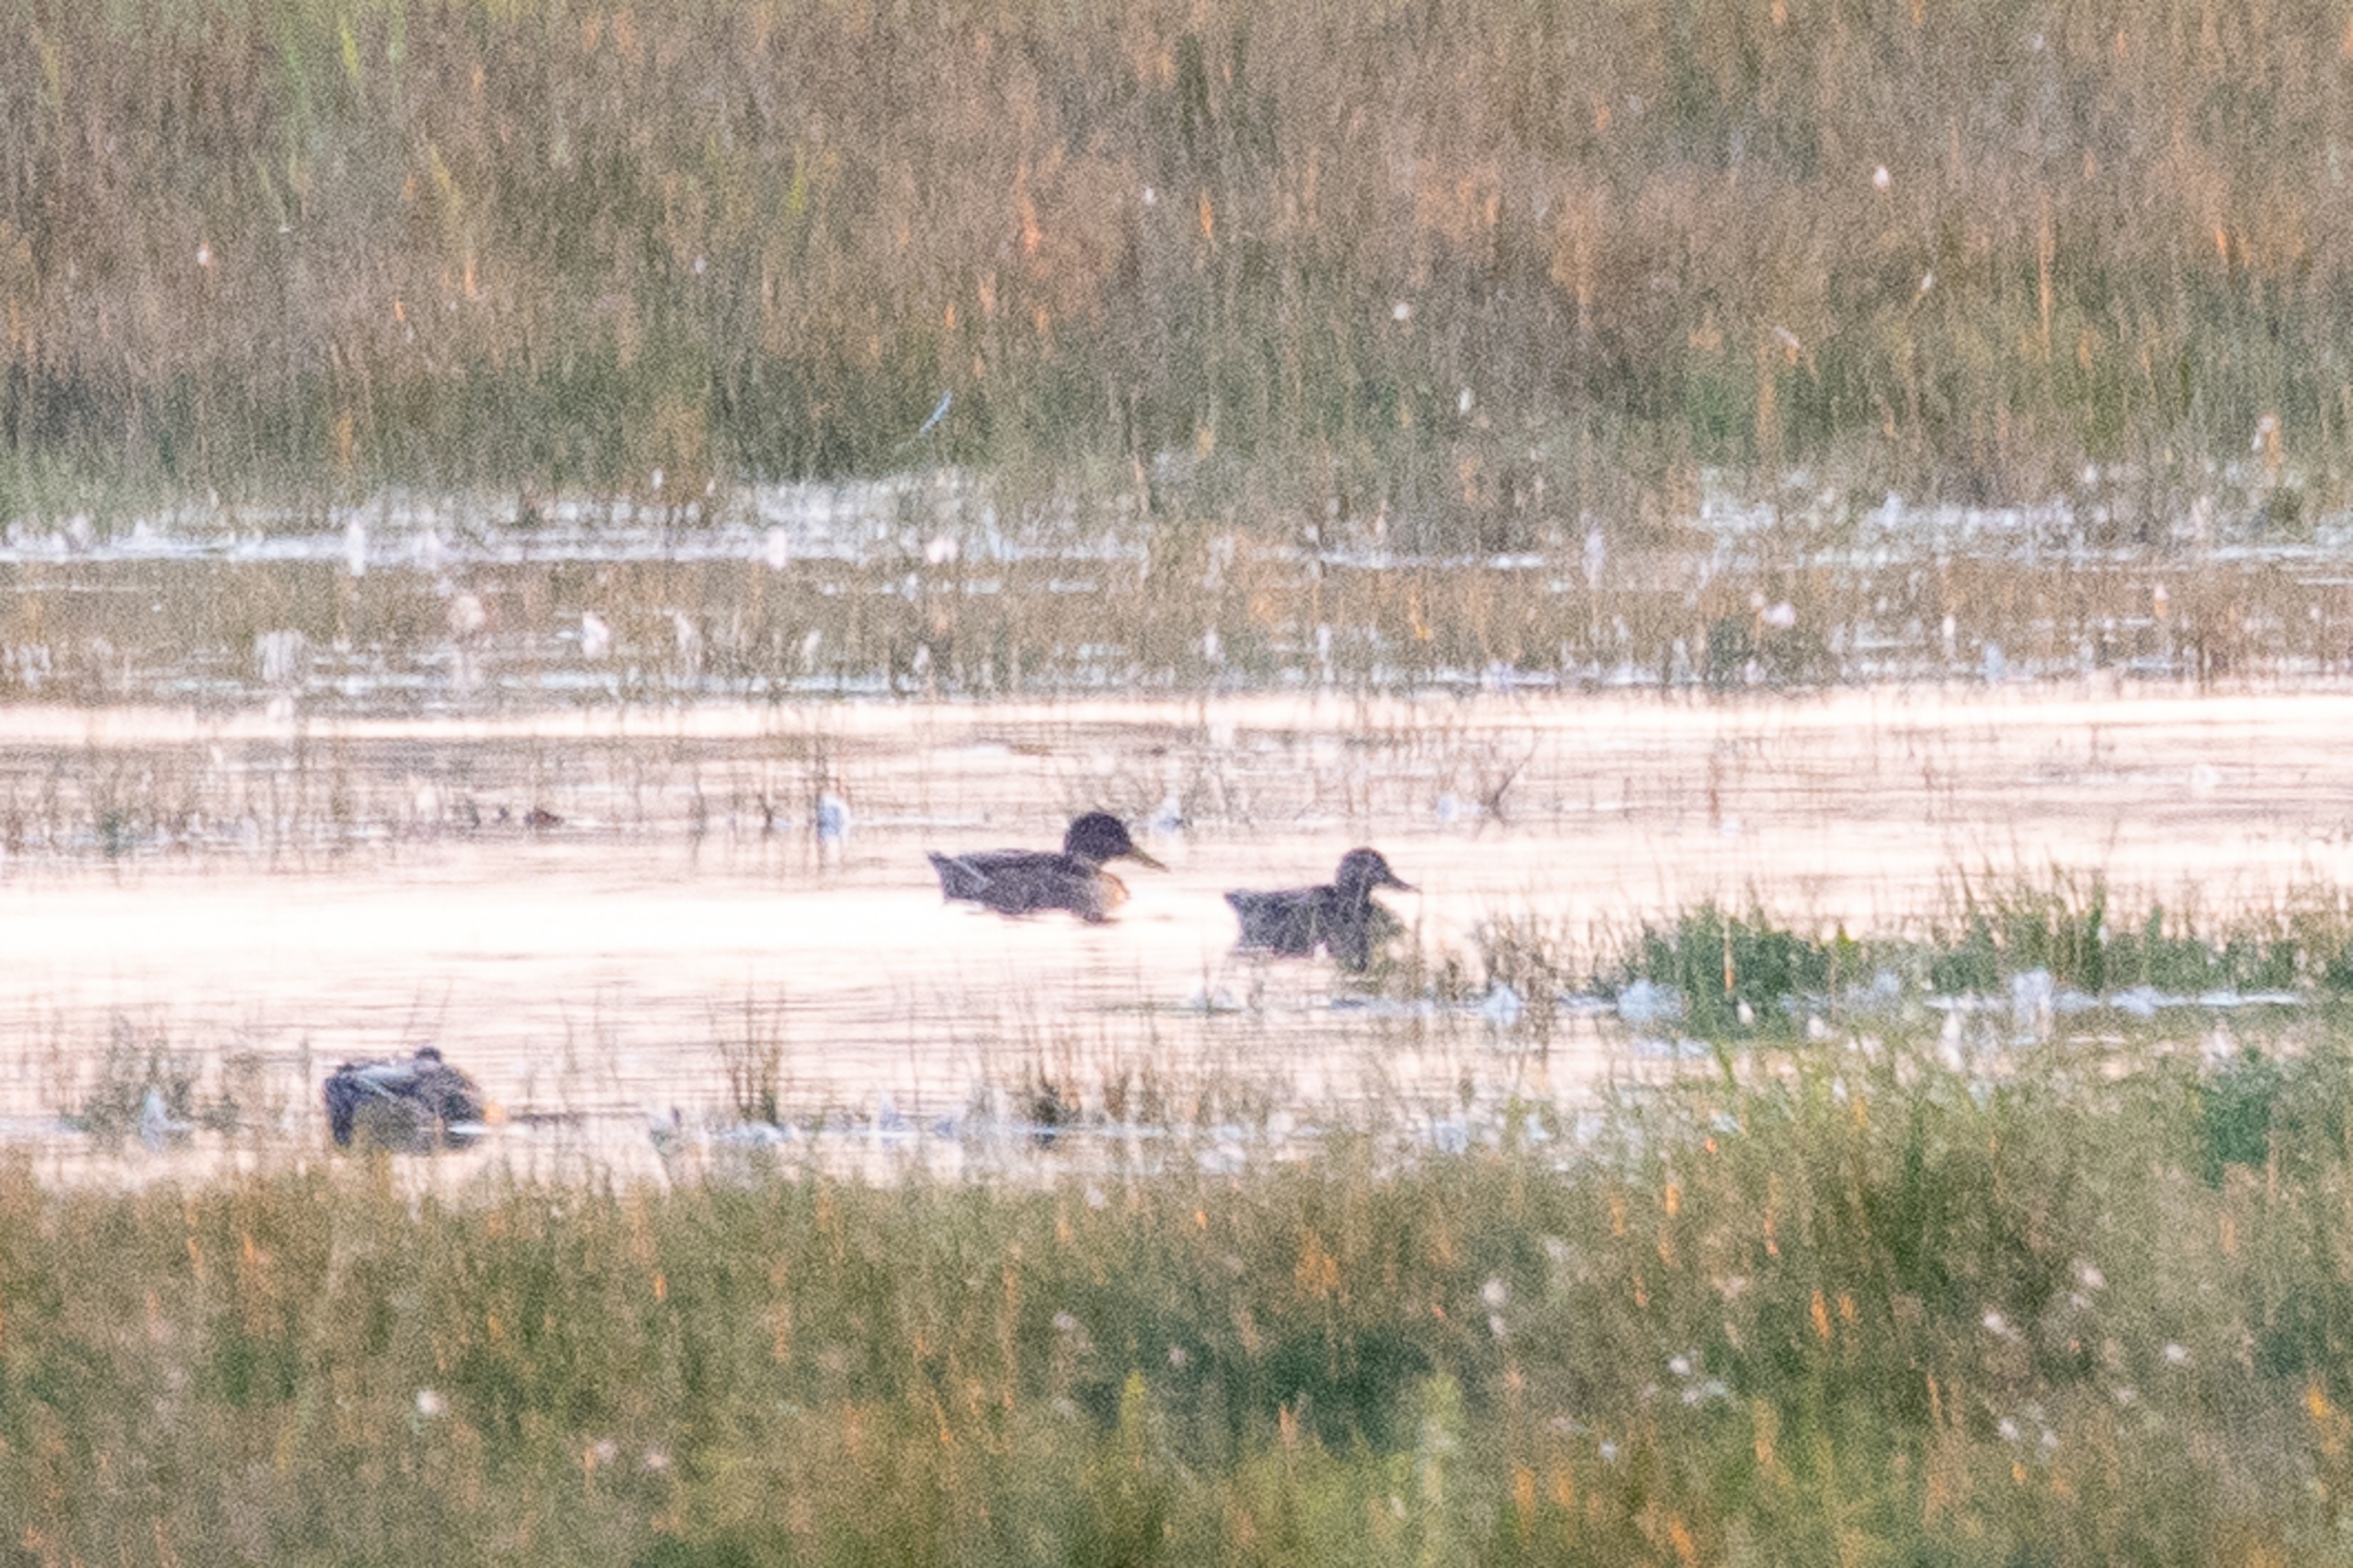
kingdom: Animalia
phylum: Chordata
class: Aves
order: Anseriformes
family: Anatidae
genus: Anas
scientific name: Anas platyrhynchos
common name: Gråand
